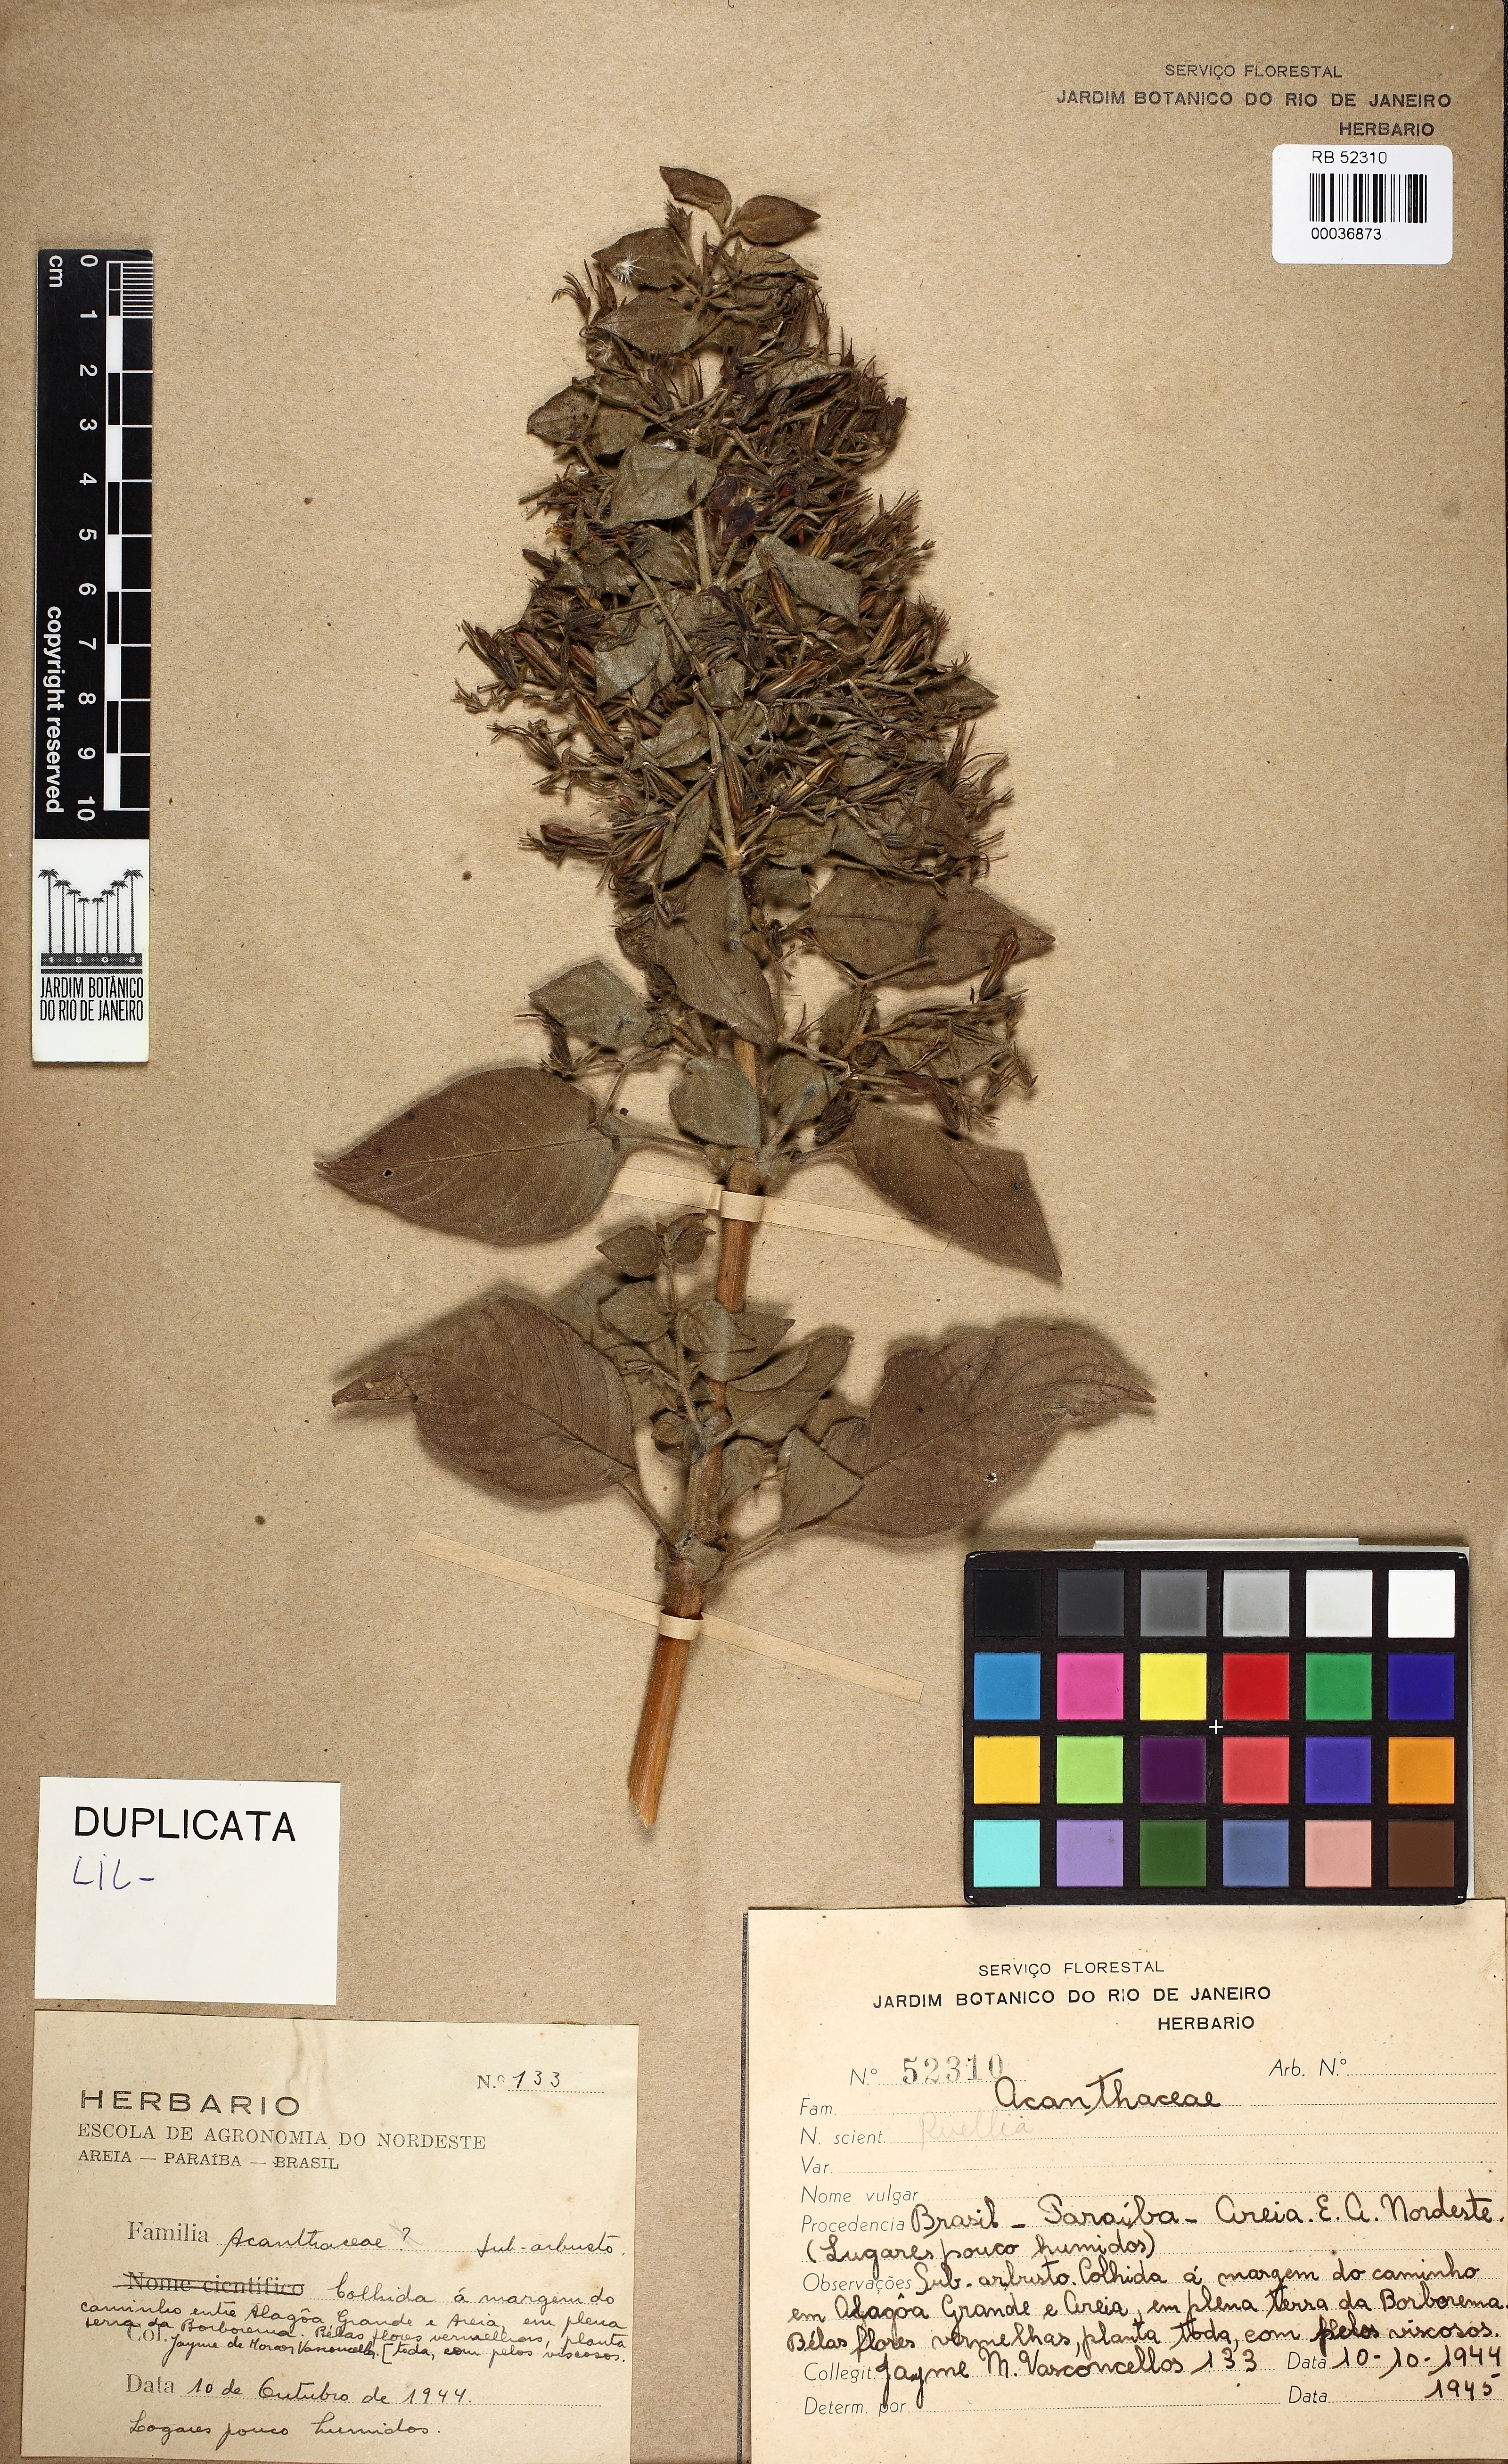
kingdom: Plantae
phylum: Tracheophyta
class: Magnoliopsida
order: Lamiales
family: Acanthaceae
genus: Ruellia
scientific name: Ruellia paniculata
